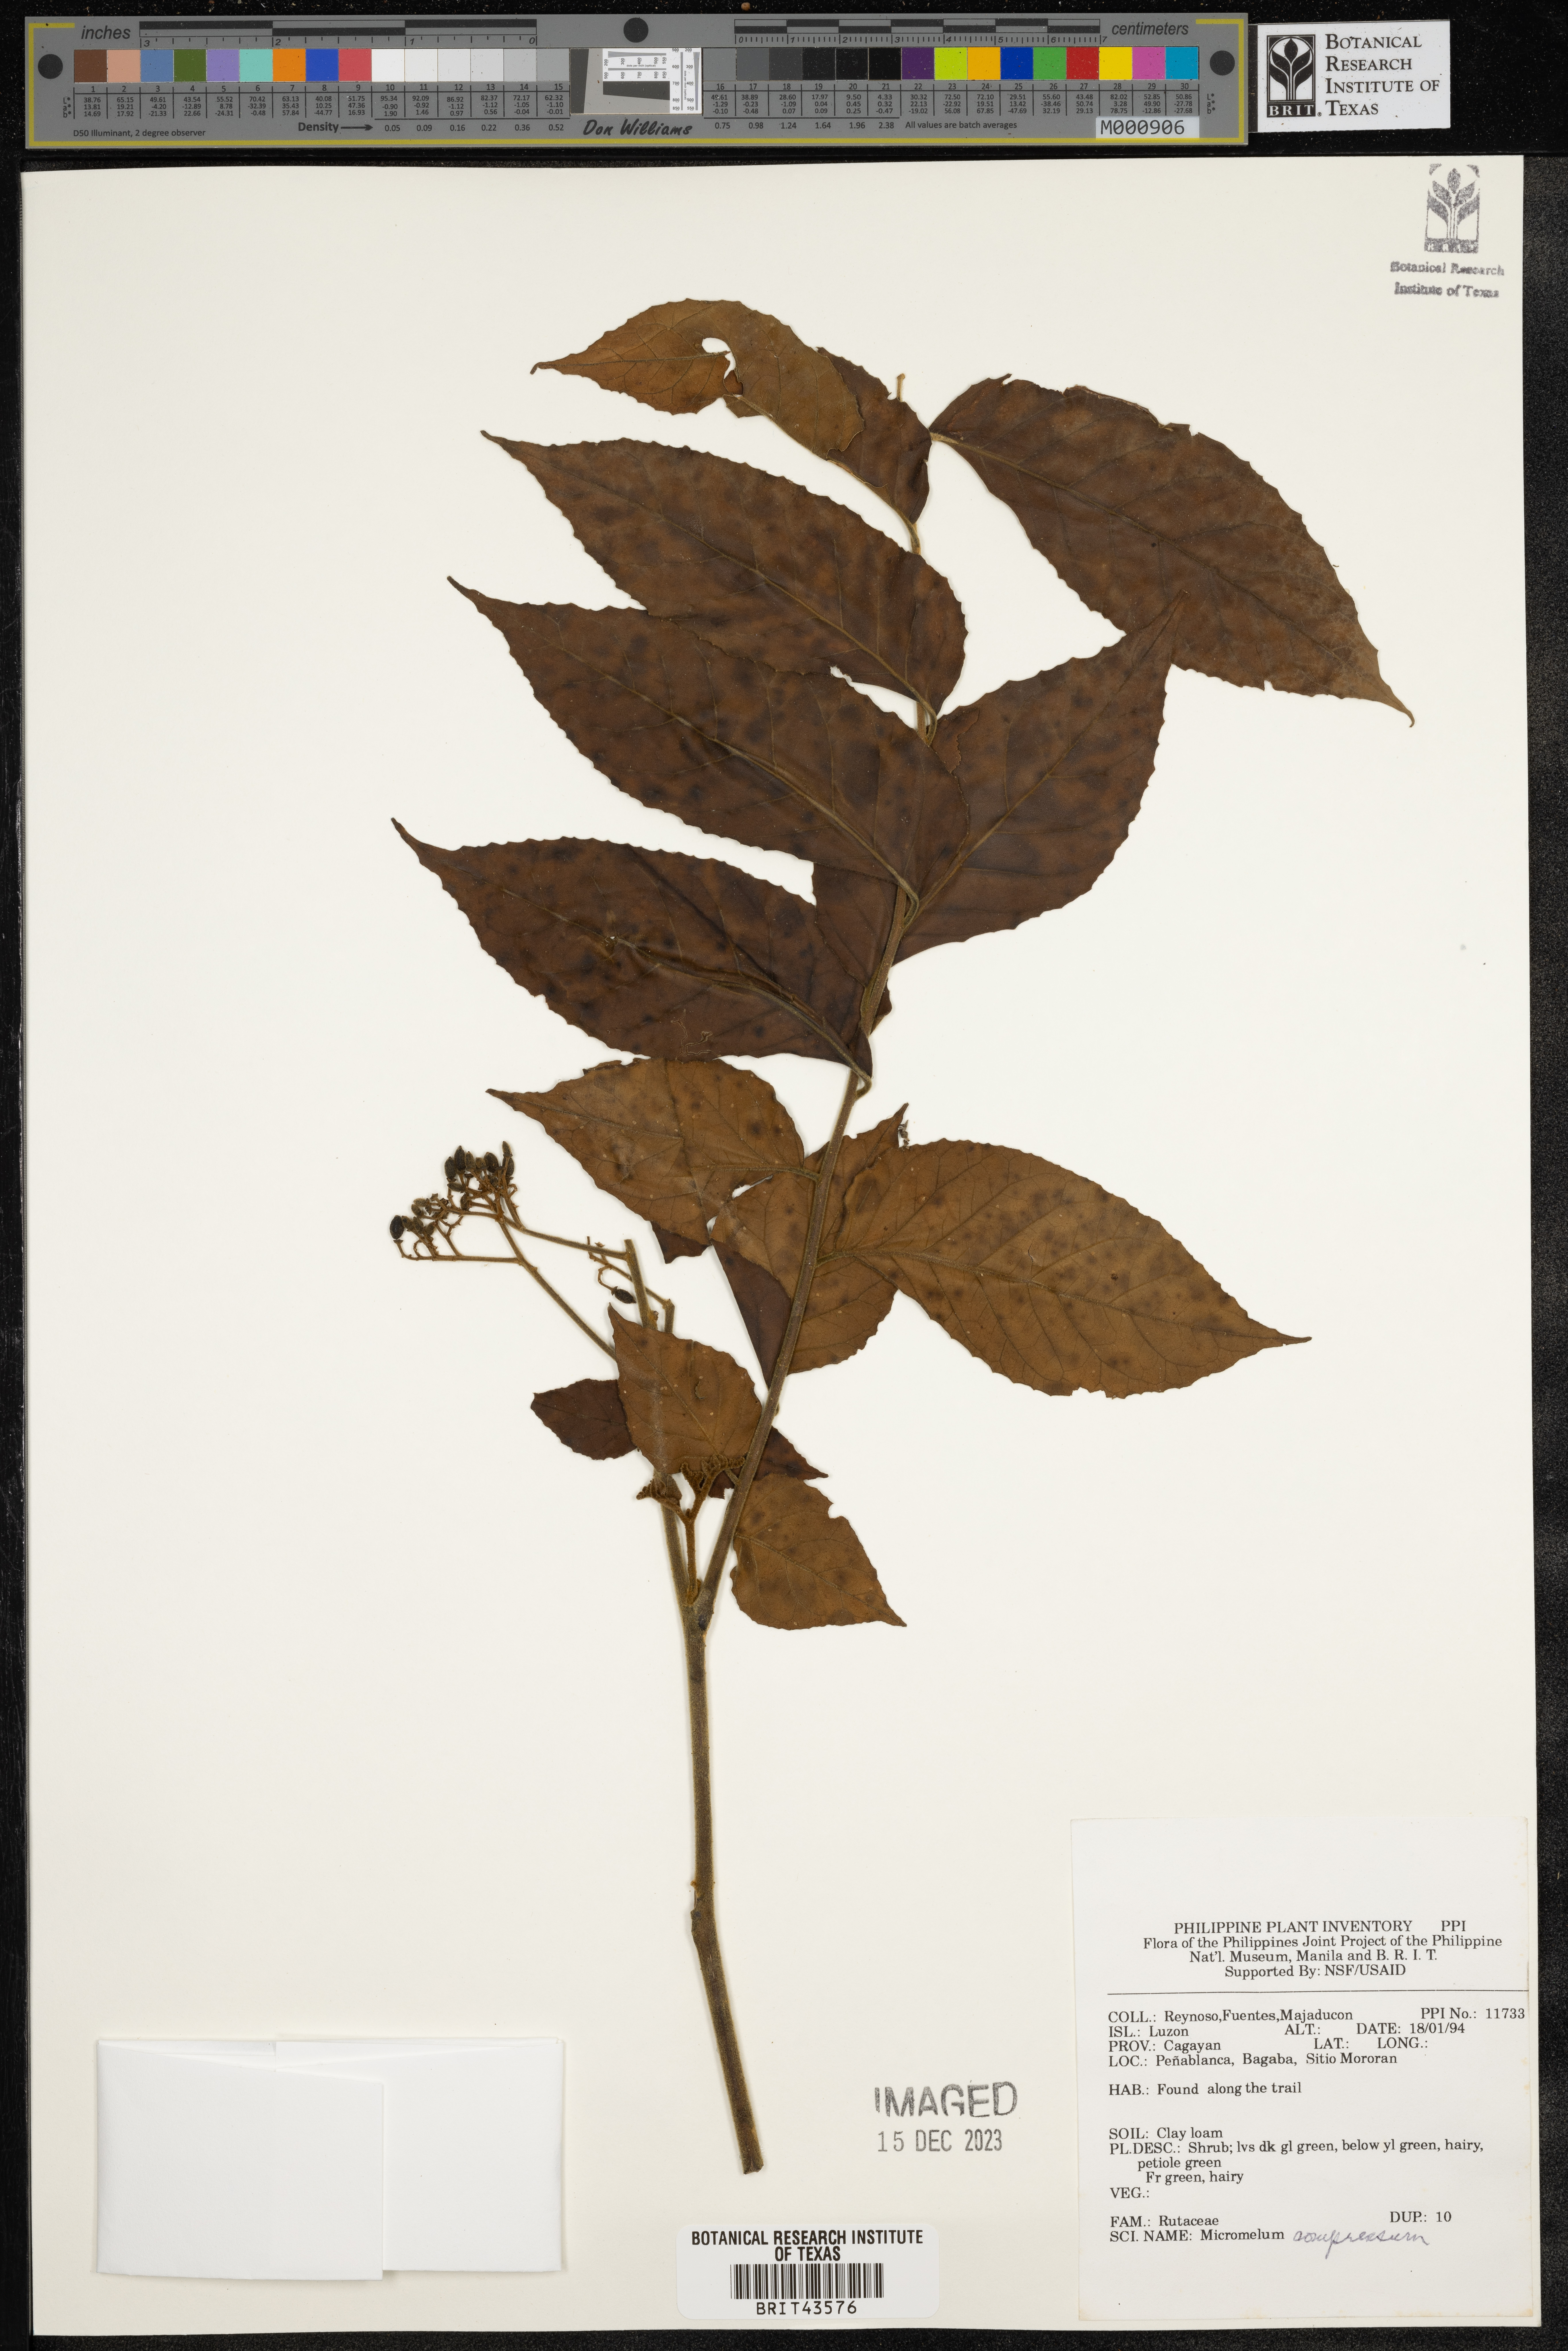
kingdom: Plantae
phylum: Tracheophyta
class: Magnoliopsida
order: Sapindales
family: Rutaceae
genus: Micromelum
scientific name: Micromelum compressum
